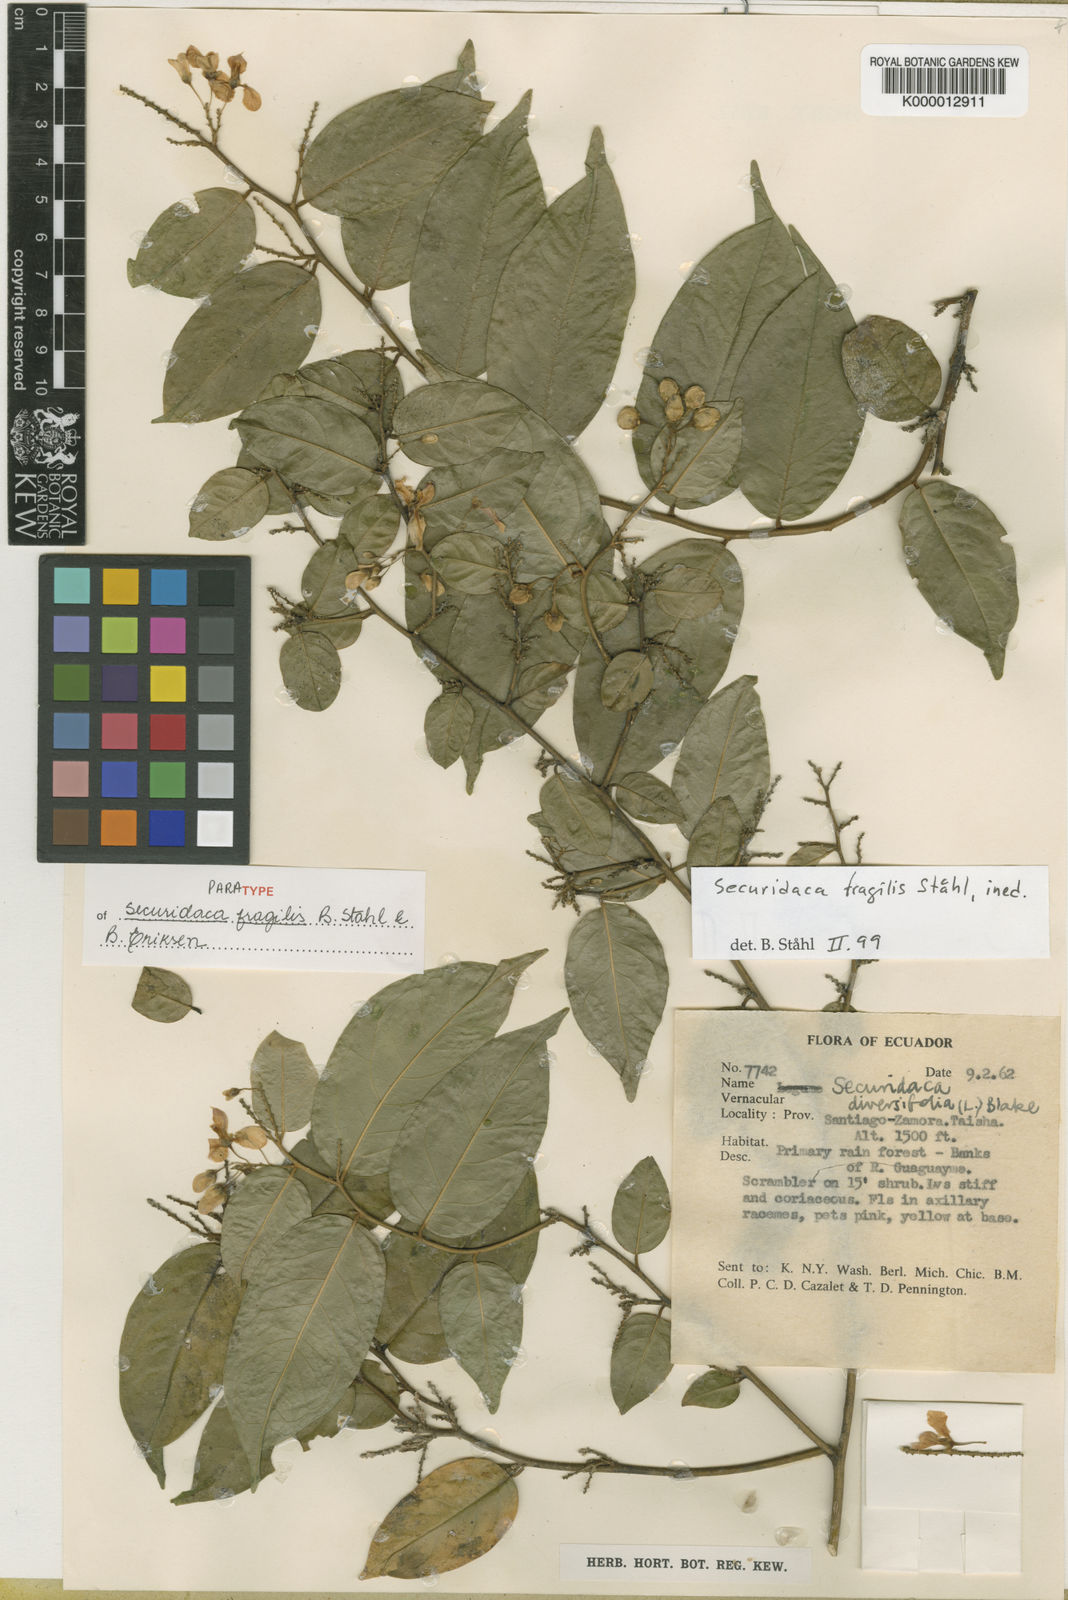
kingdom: Plantae
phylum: Tracheophyta
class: Magnoliopsida
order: Fabales
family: Polygalaceae
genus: Securidaca
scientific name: Securidaca
